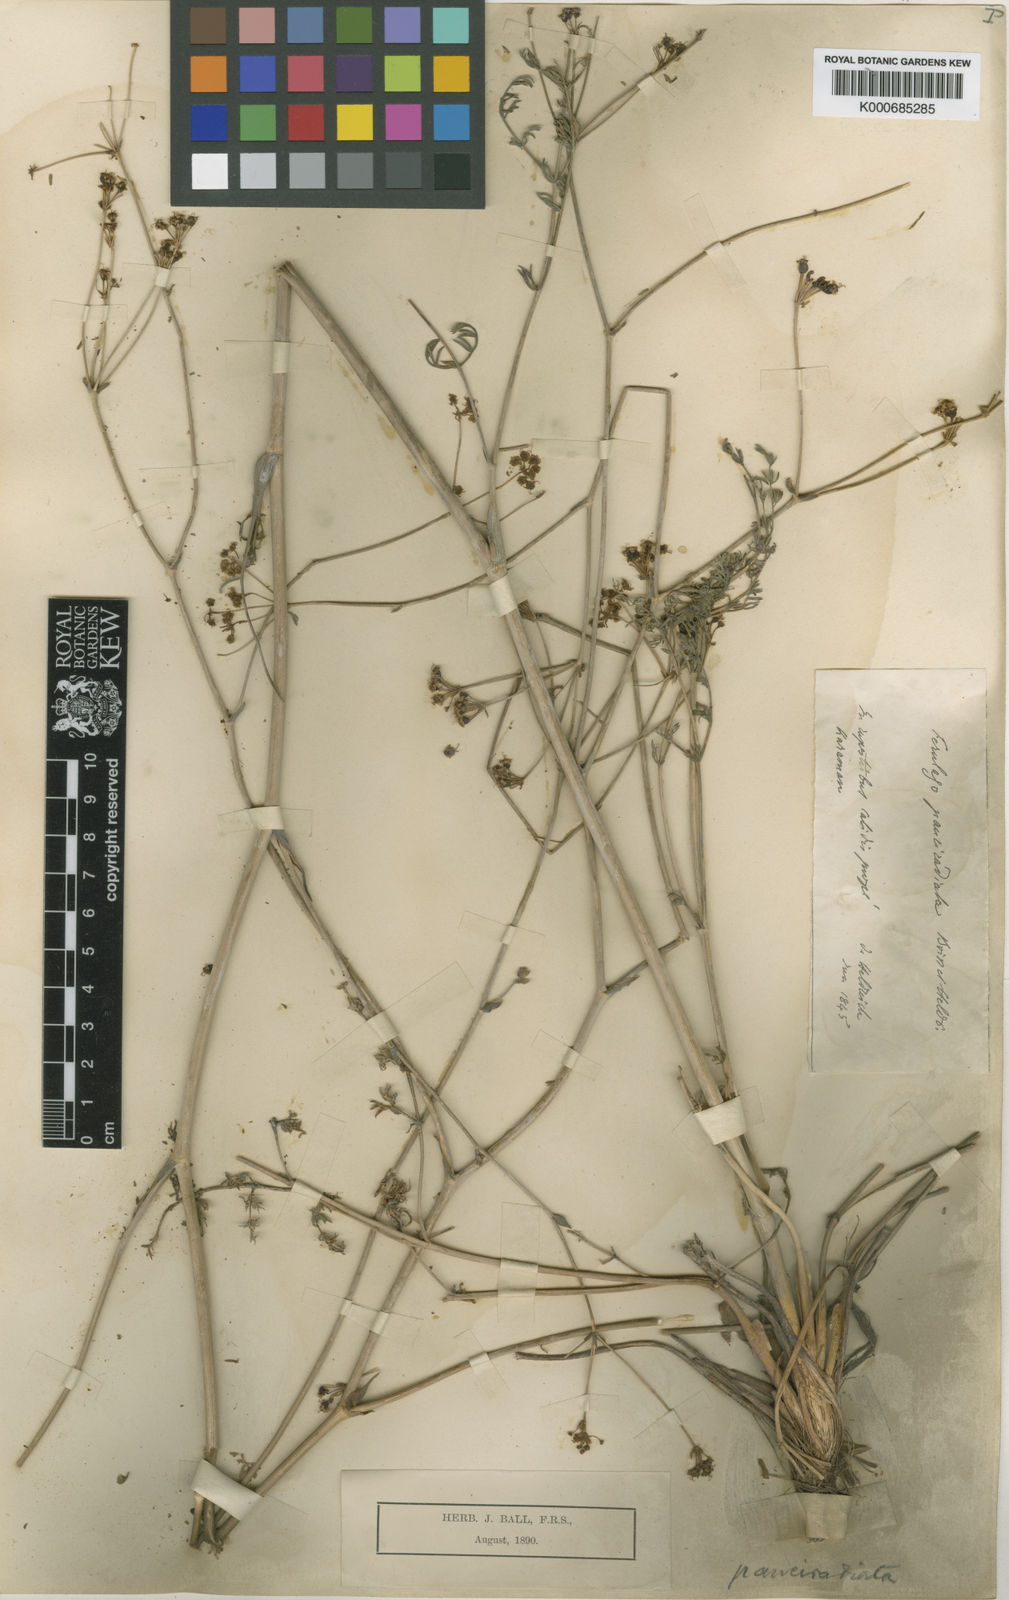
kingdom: Plantae
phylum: Tracheophyta
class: Magnoliopsida
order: Apiales
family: Apiaceae
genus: Ferulago
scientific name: Ferulago armena
